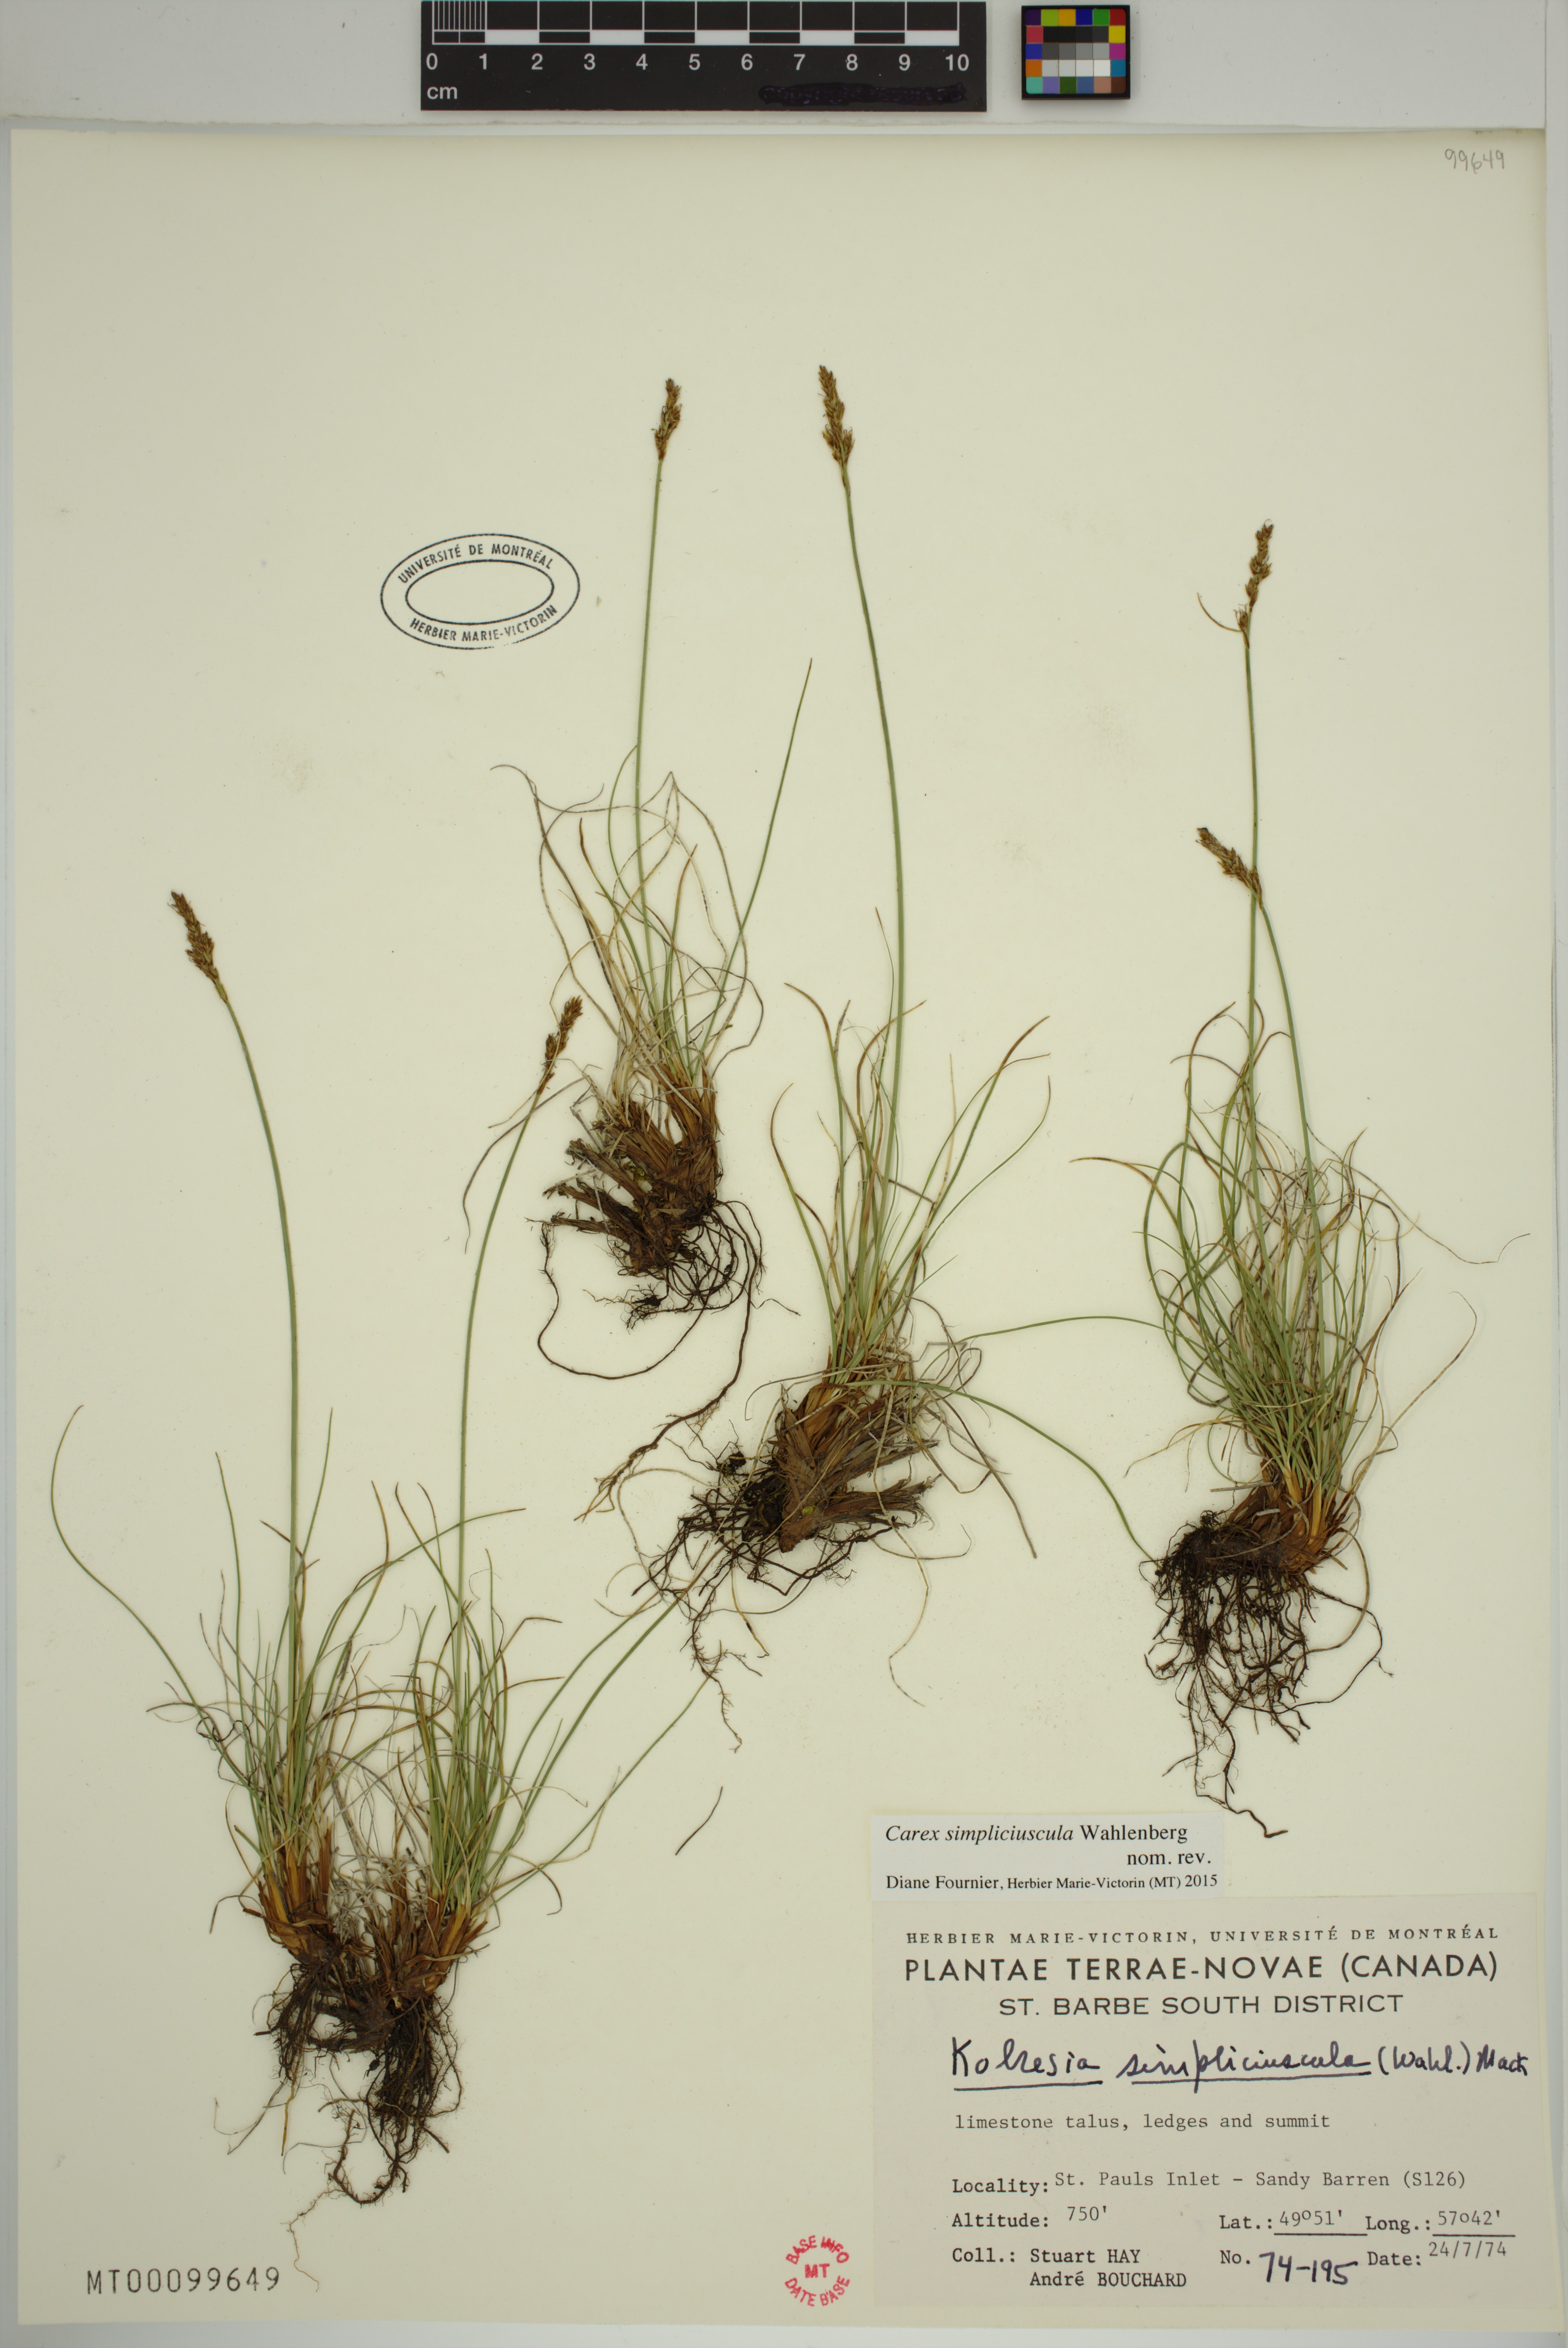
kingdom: Plantae
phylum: Tracheophyta
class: Liliopsida
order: Poales
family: Cyperaceae
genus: Carex
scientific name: Carex simpliciuscula
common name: Simple bog sedge
